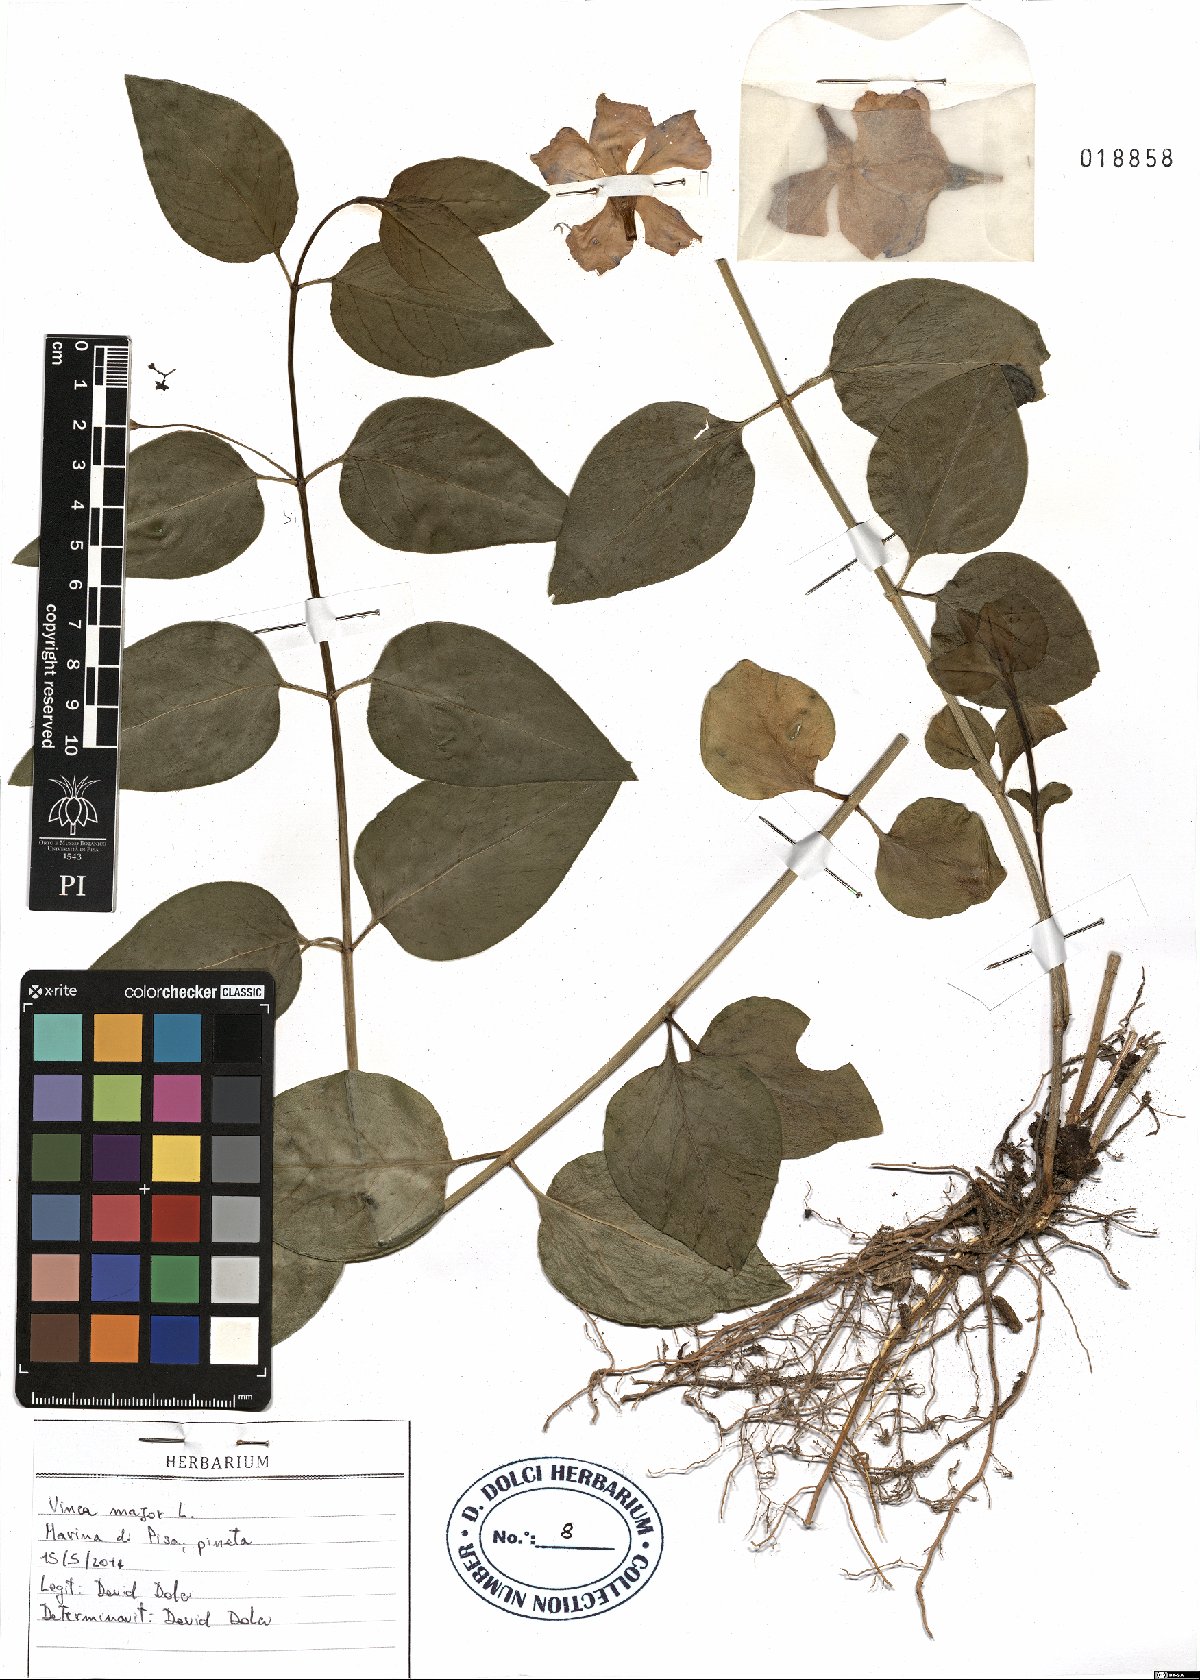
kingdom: Plantae
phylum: Tracheophyta
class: Magnoliopsida
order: Gentianales
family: Apocynaceae
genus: Vinca
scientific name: Vinca major
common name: Greater periwinkle
